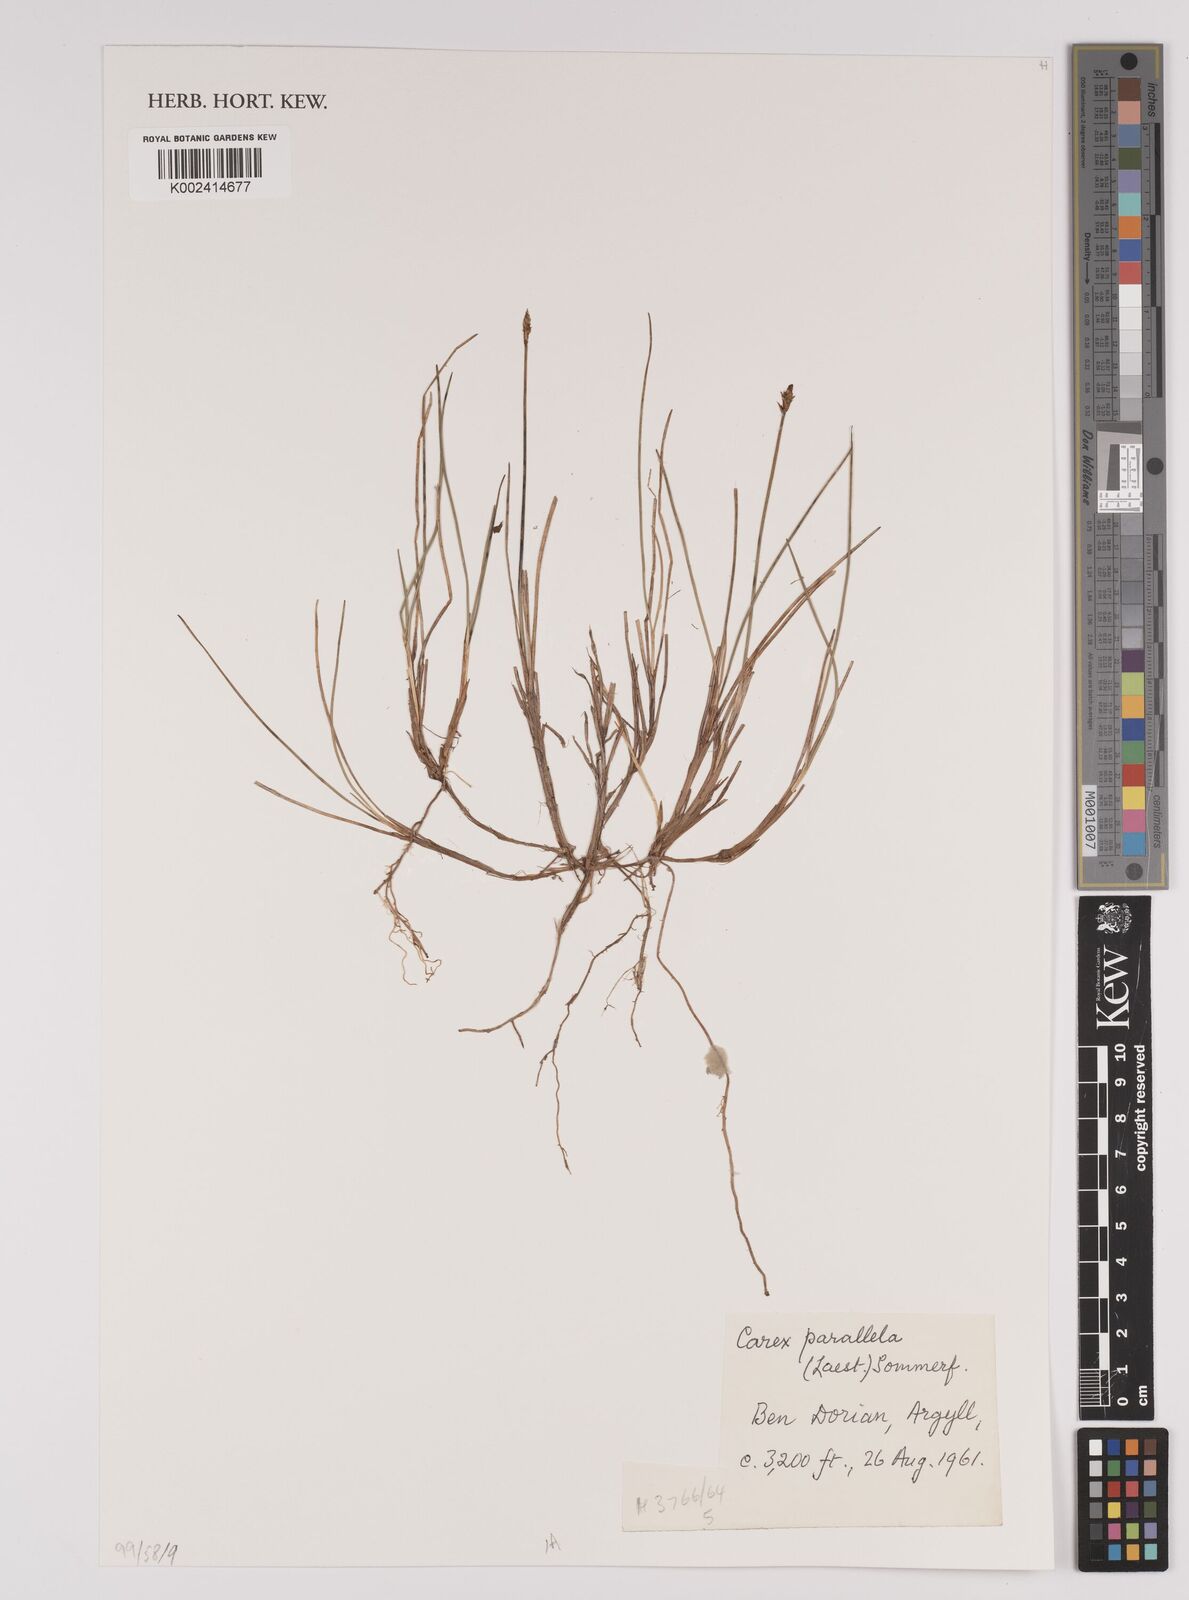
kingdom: Plantae
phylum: Tracheophyta
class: Liliopsida
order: Poales
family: Cyperaceae
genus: Carex
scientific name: Carex parallela
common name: Parallel sedge
